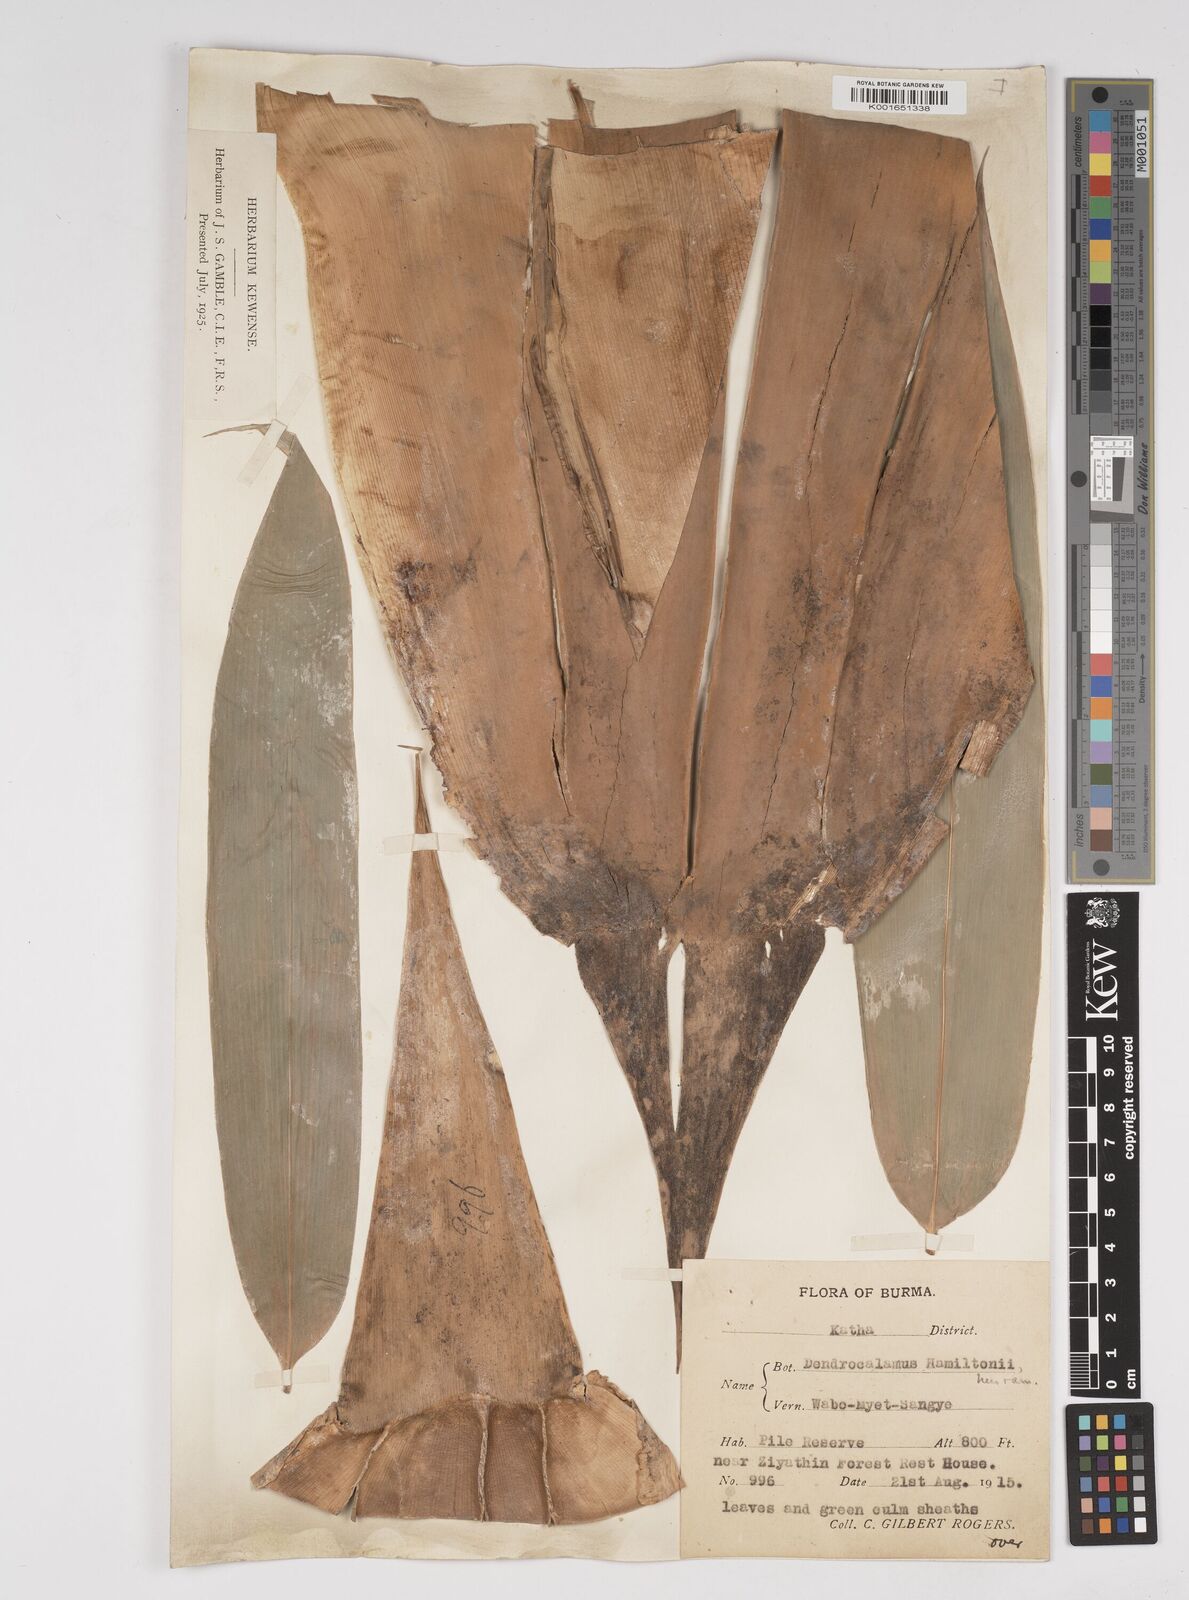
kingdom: Plantae
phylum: Tracheophyta
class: Liliopsida
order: Poales
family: Poaceae
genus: Dendrocalamus
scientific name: Dendrocalamus hamiltonii
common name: Tama bamboo
